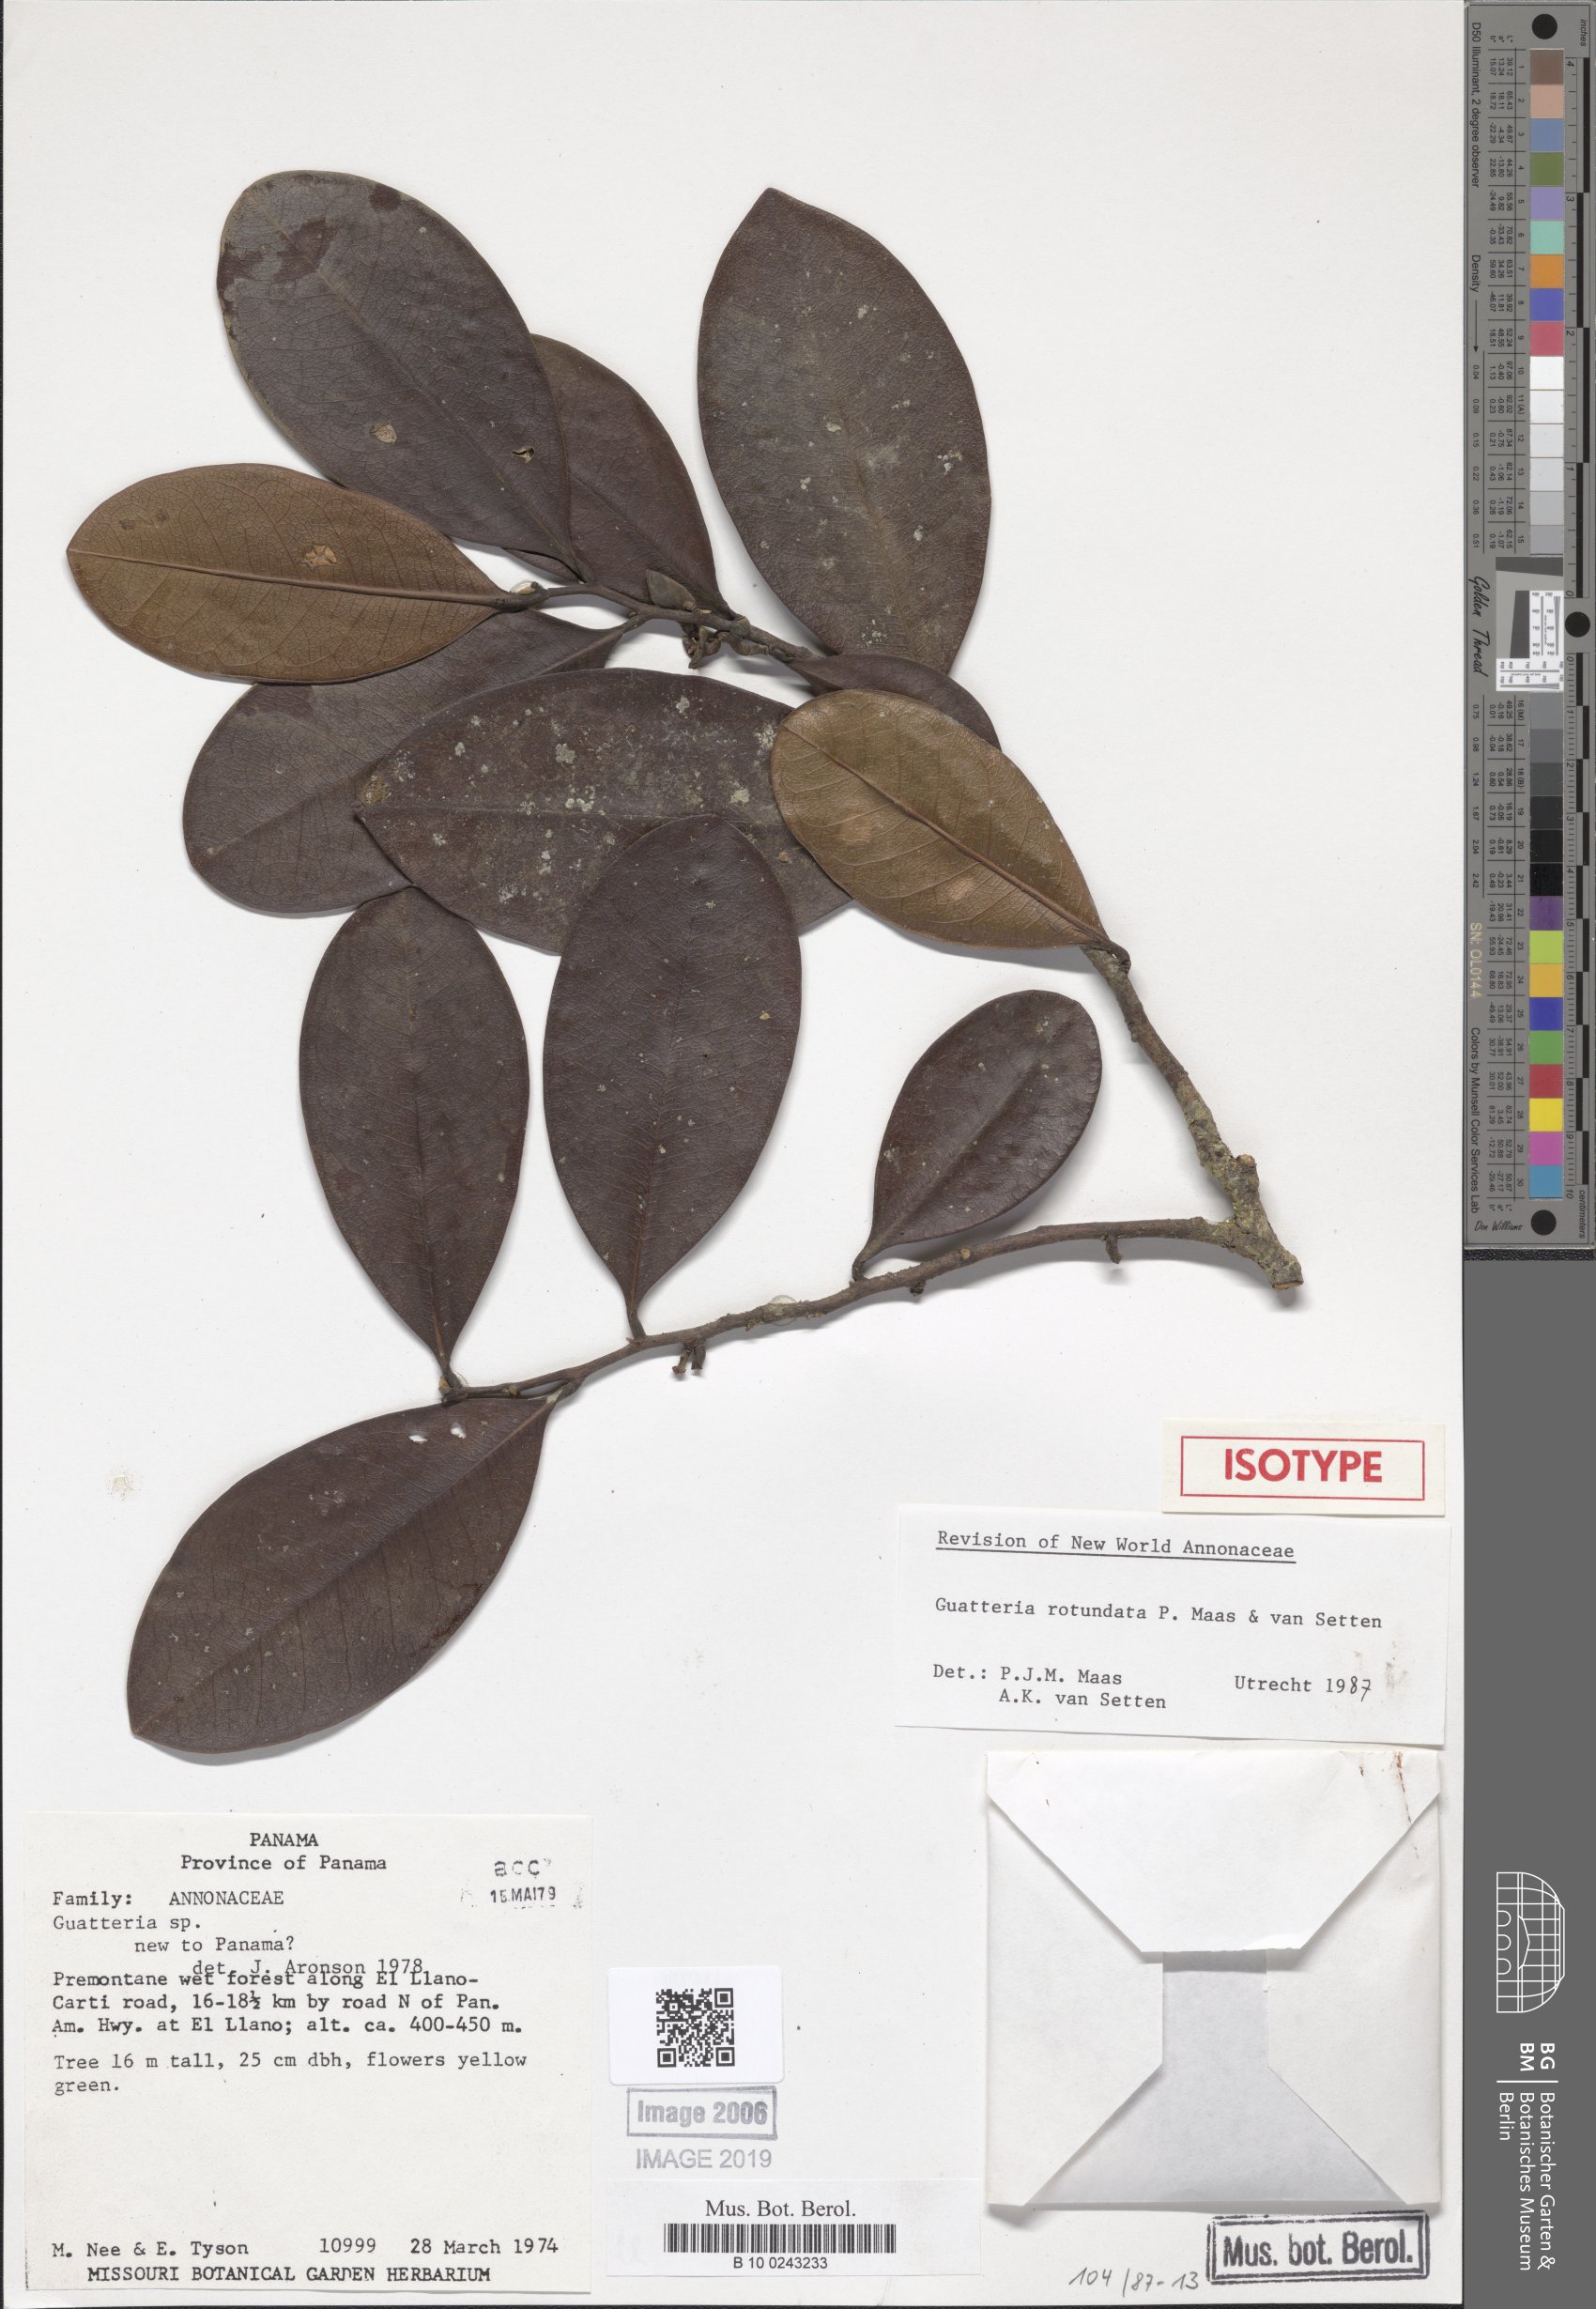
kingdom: Plantae
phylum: Tracheophyta
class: Magnoliopsida
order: Magnoliales
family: Annonaceae
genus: Guatteria
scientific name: Guatteria rotundata
